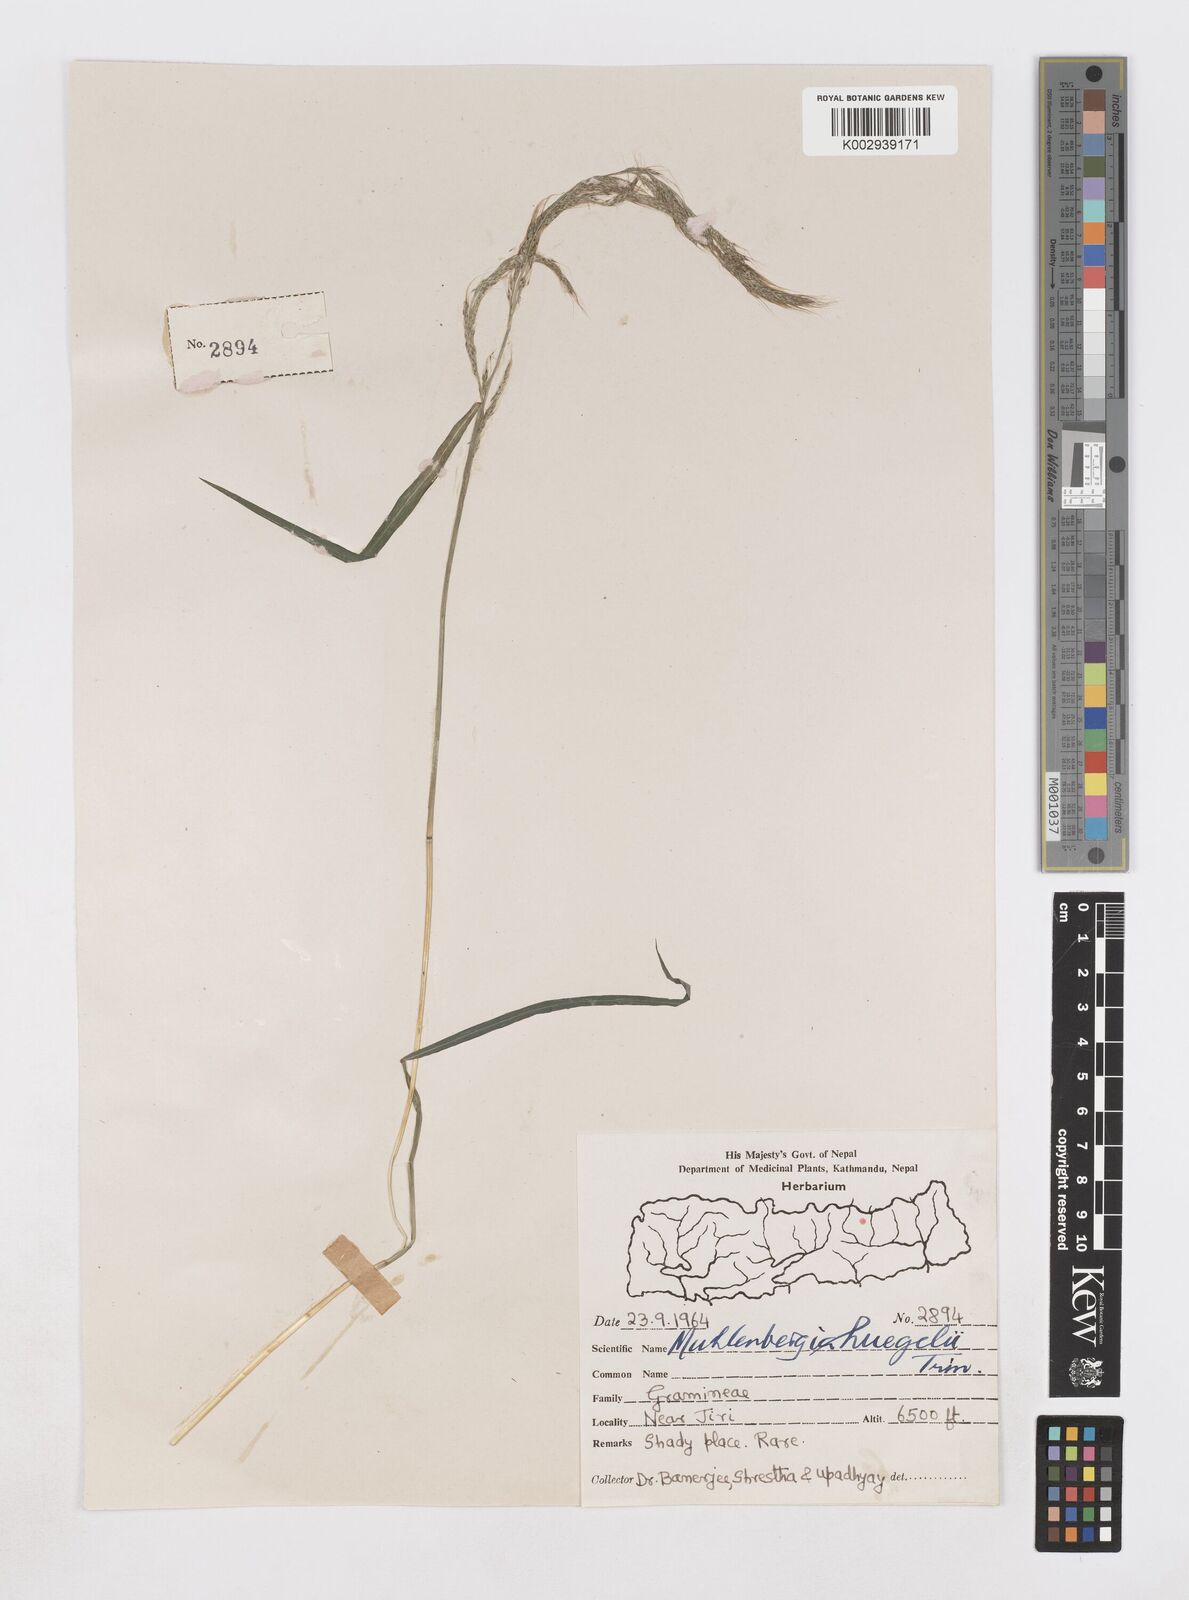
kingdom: Plantae
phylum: Tracheophyta
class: Liliopsida
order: Poales
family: Poaceae
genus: Muhlenbergia
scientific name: Muhlenbergia huegelii
